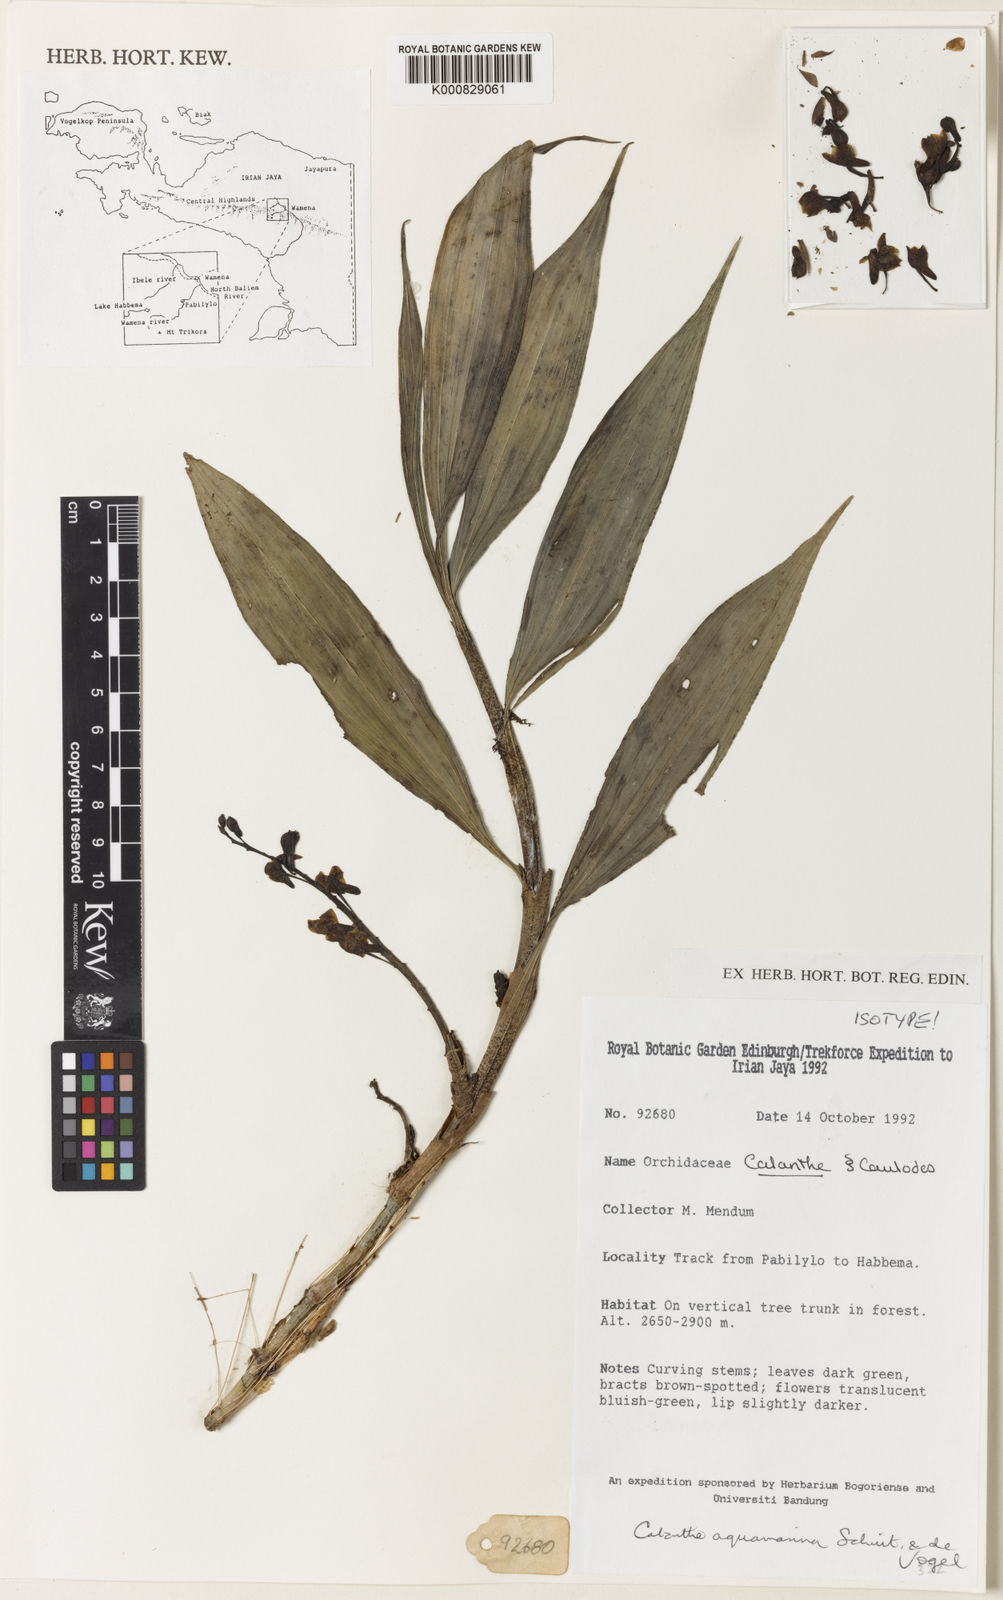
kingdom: Plantae
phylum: Tracheophyta
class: Liliopsida
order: Asparagales
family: Orchidaceae
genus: Calanthe
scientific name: Calanthe aquamarina
